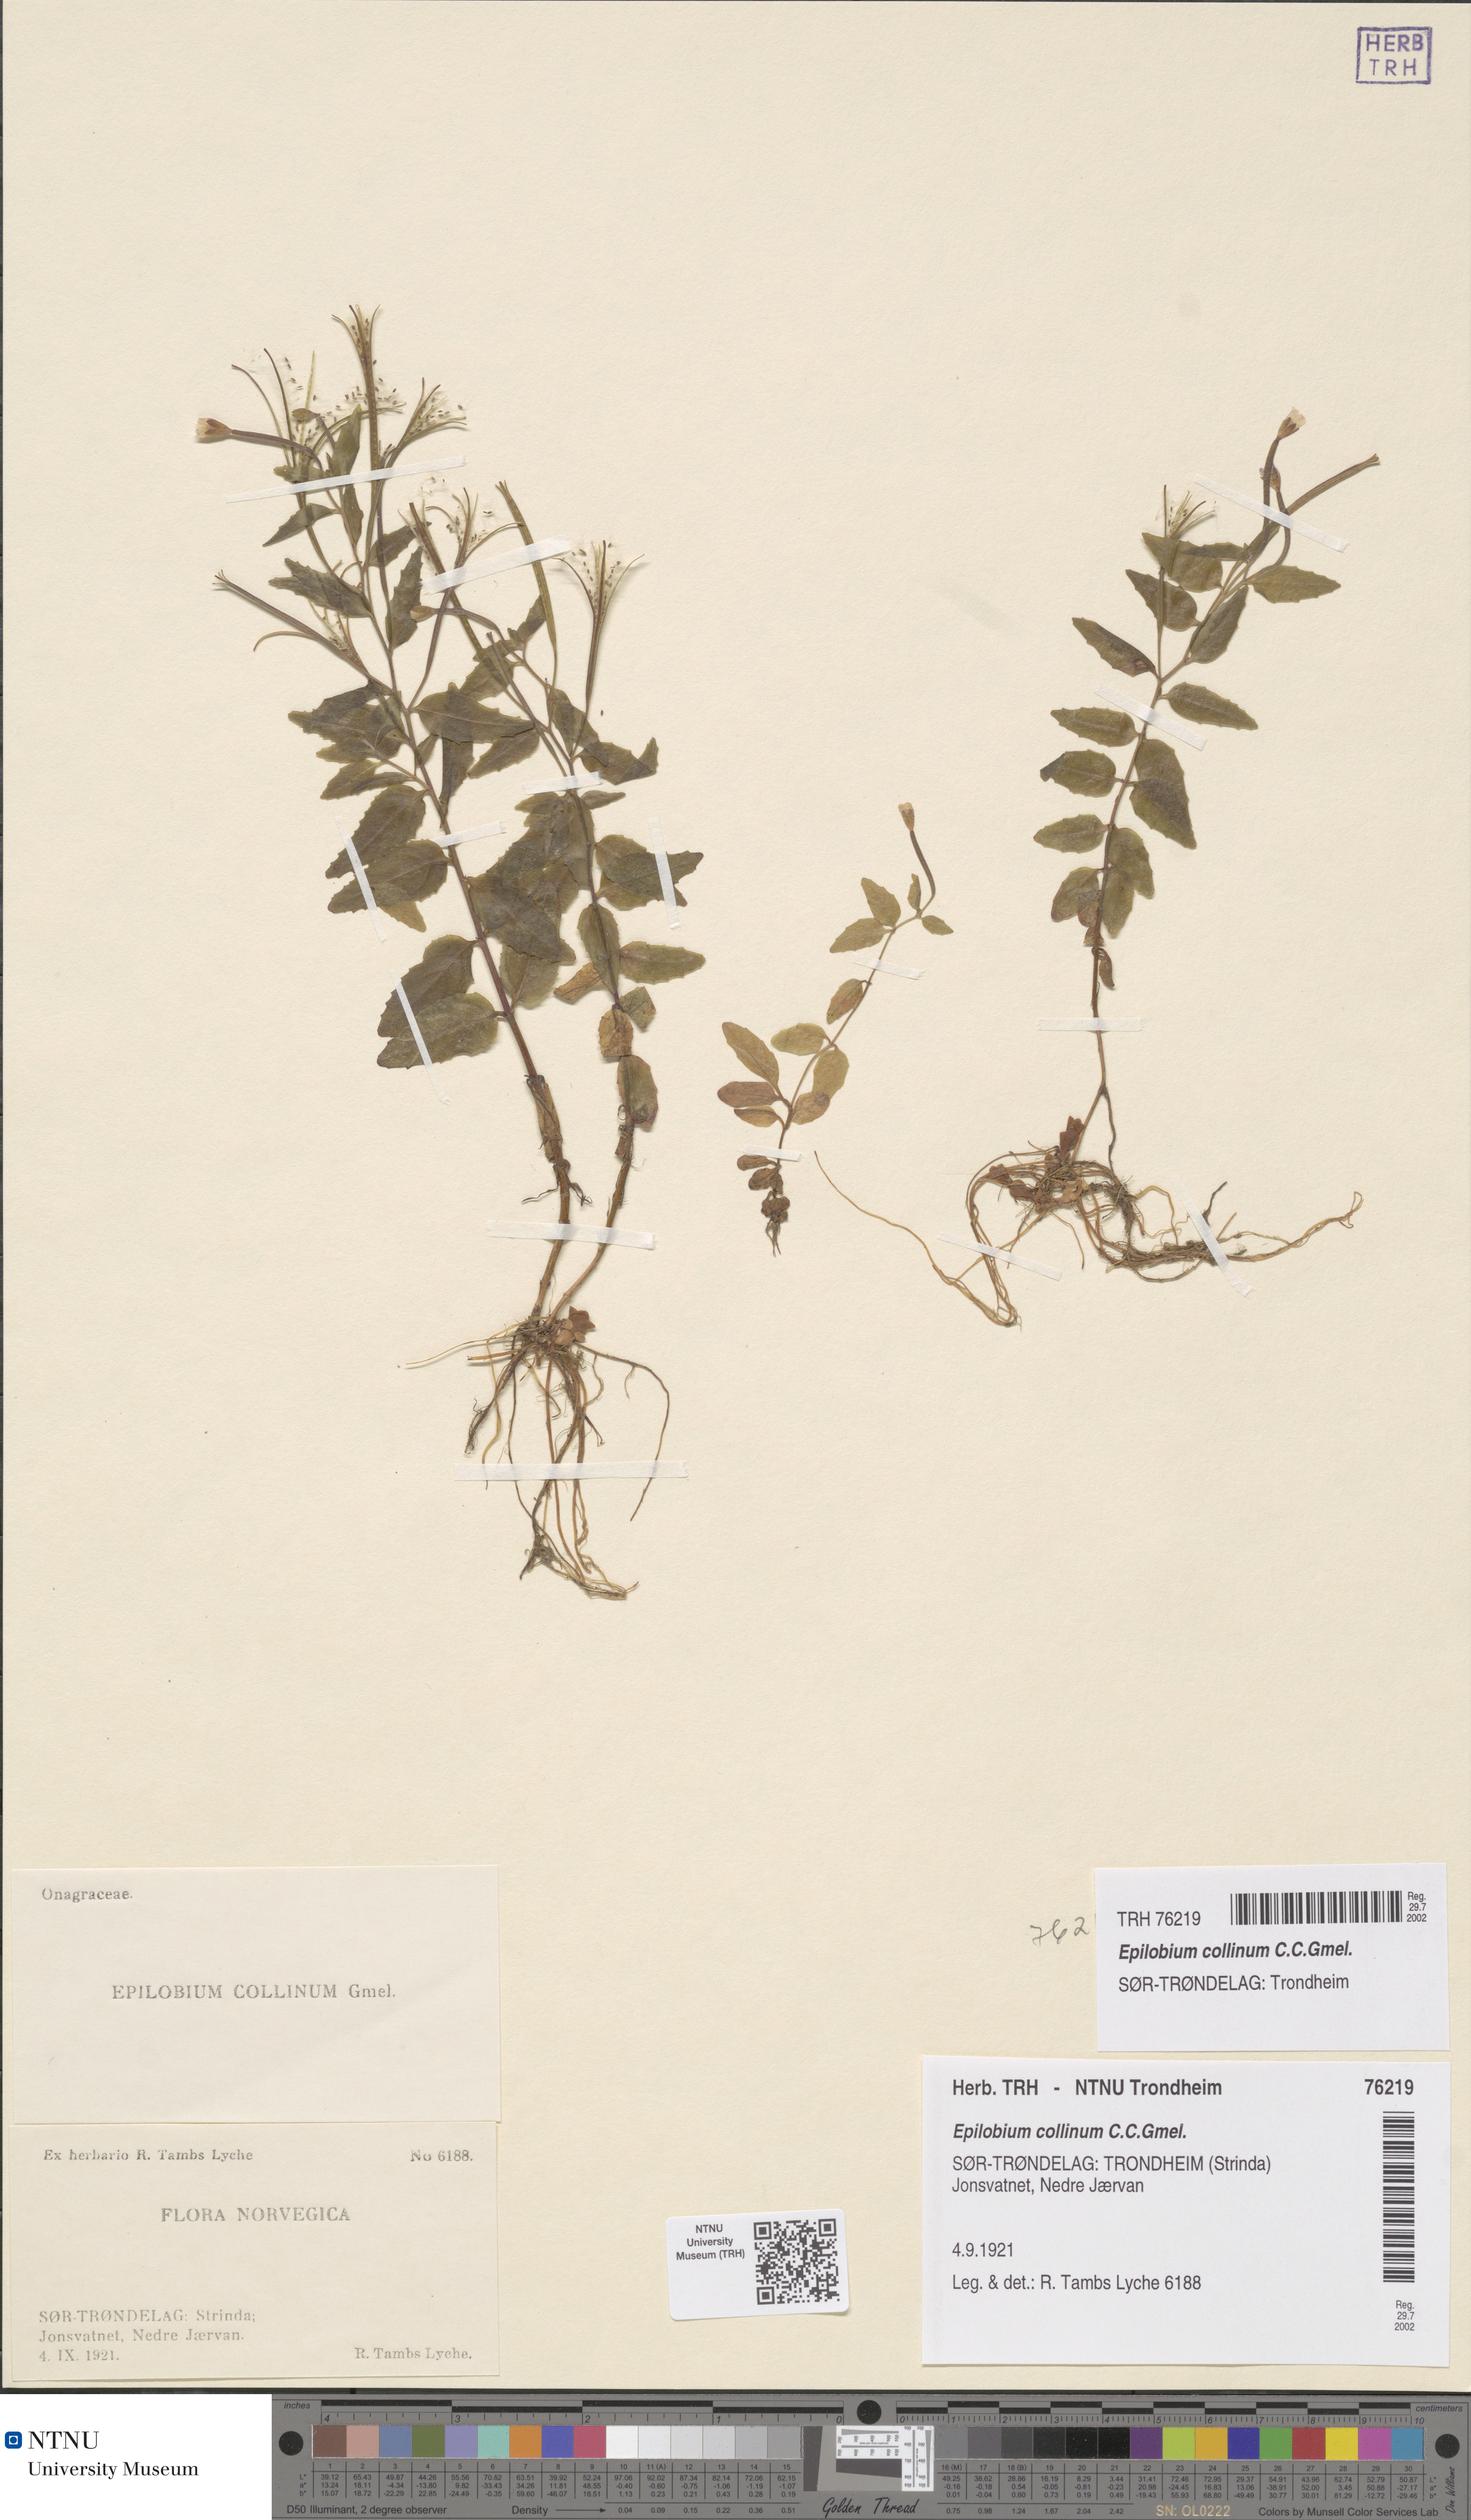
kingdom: Plantae
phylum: Tracheophyta
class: Magnoliopsida
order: Myrtales
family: Onagraceae
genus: Epilobium
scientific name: Epilobium collinum
